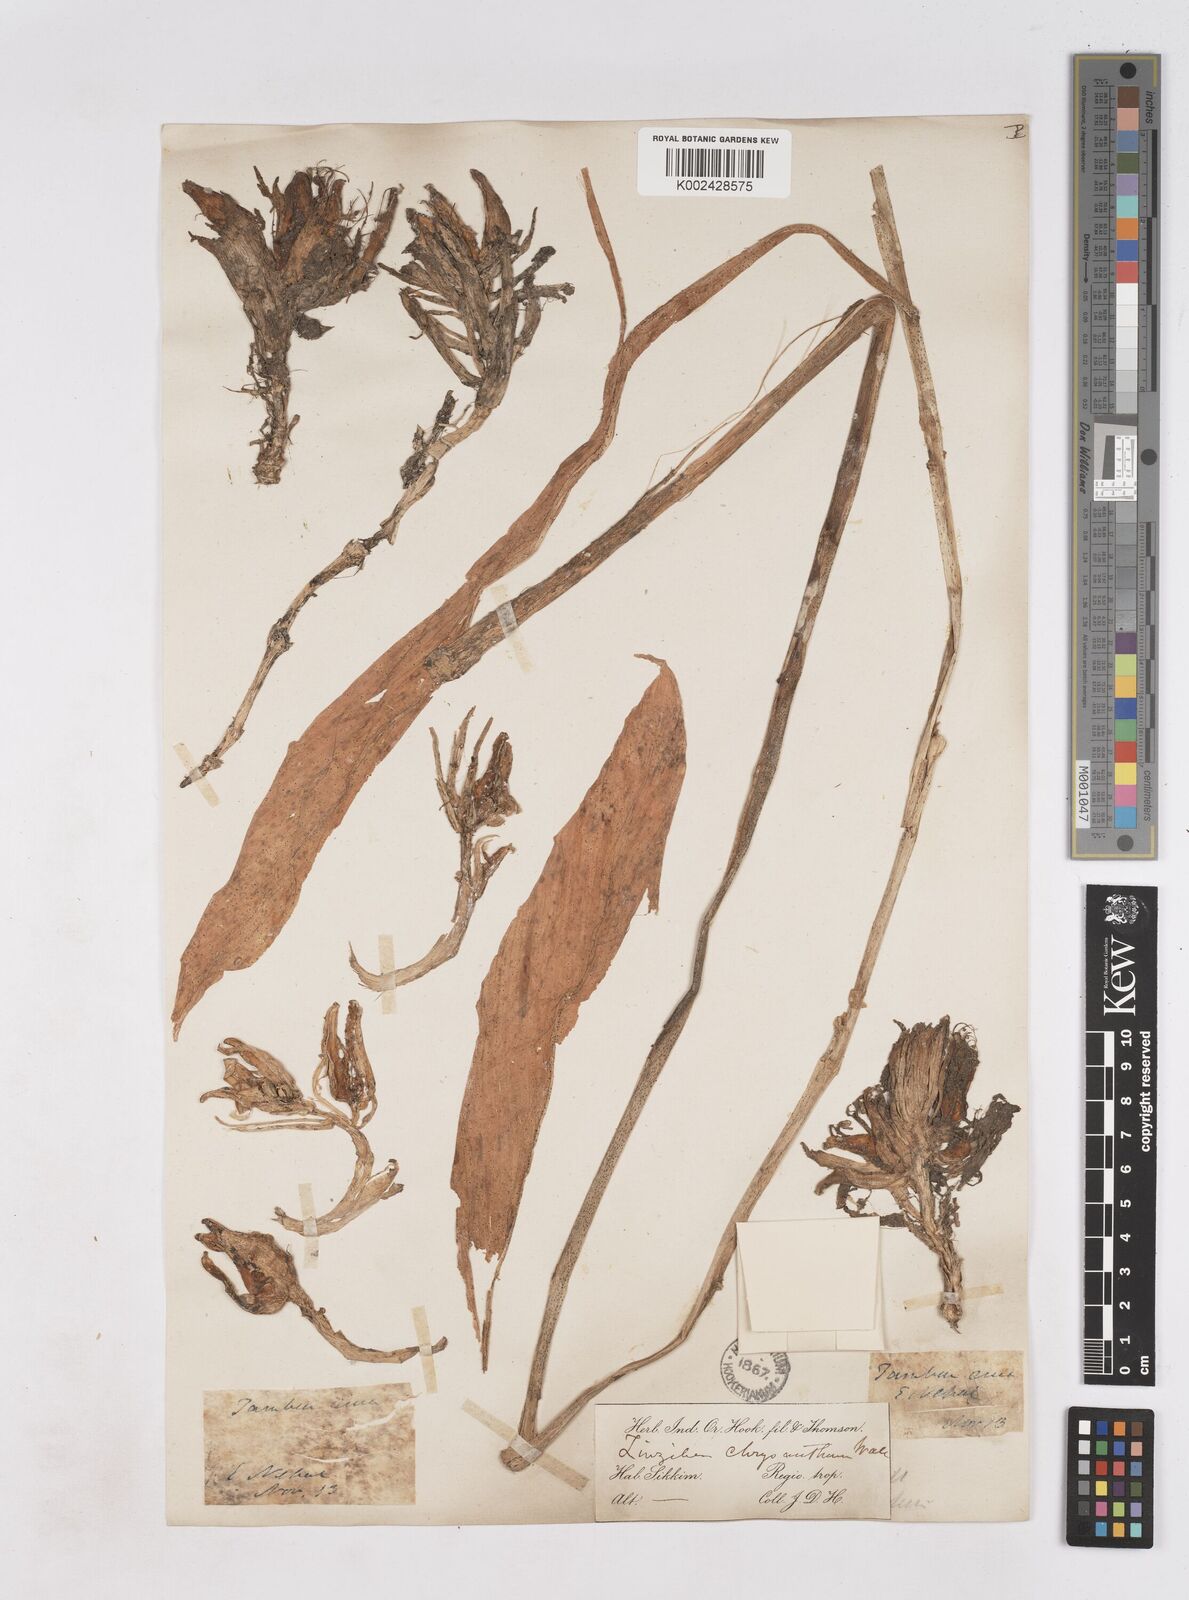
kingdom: Plantae
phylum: Tracheophyta
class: Liliopsida
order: Zingiberales
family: Zingiberaceae
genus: Zingiber
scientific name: Zingiber chrysanthum
